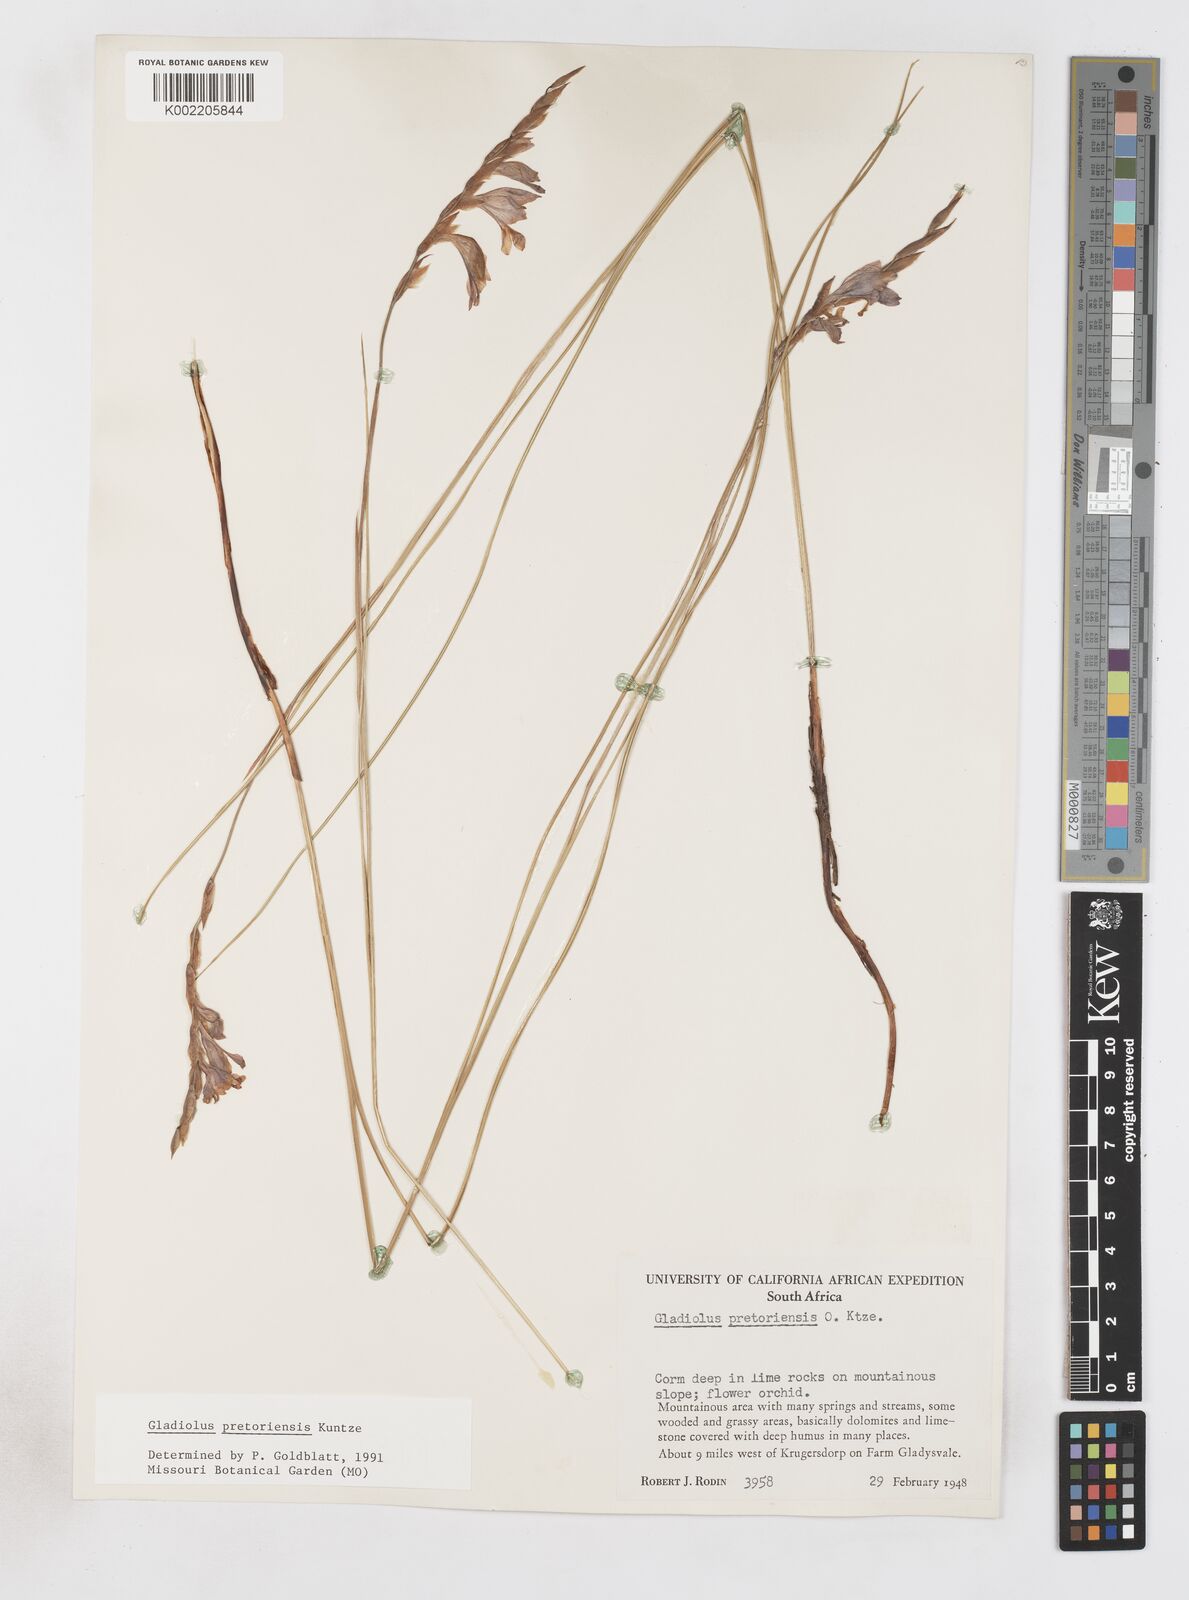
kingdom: Plantae
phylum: Tracheophyta
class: Liliopsida
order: Asparagales
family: Iridaceae
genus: Gladiolus
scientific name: Gladiolus pretoriensis
